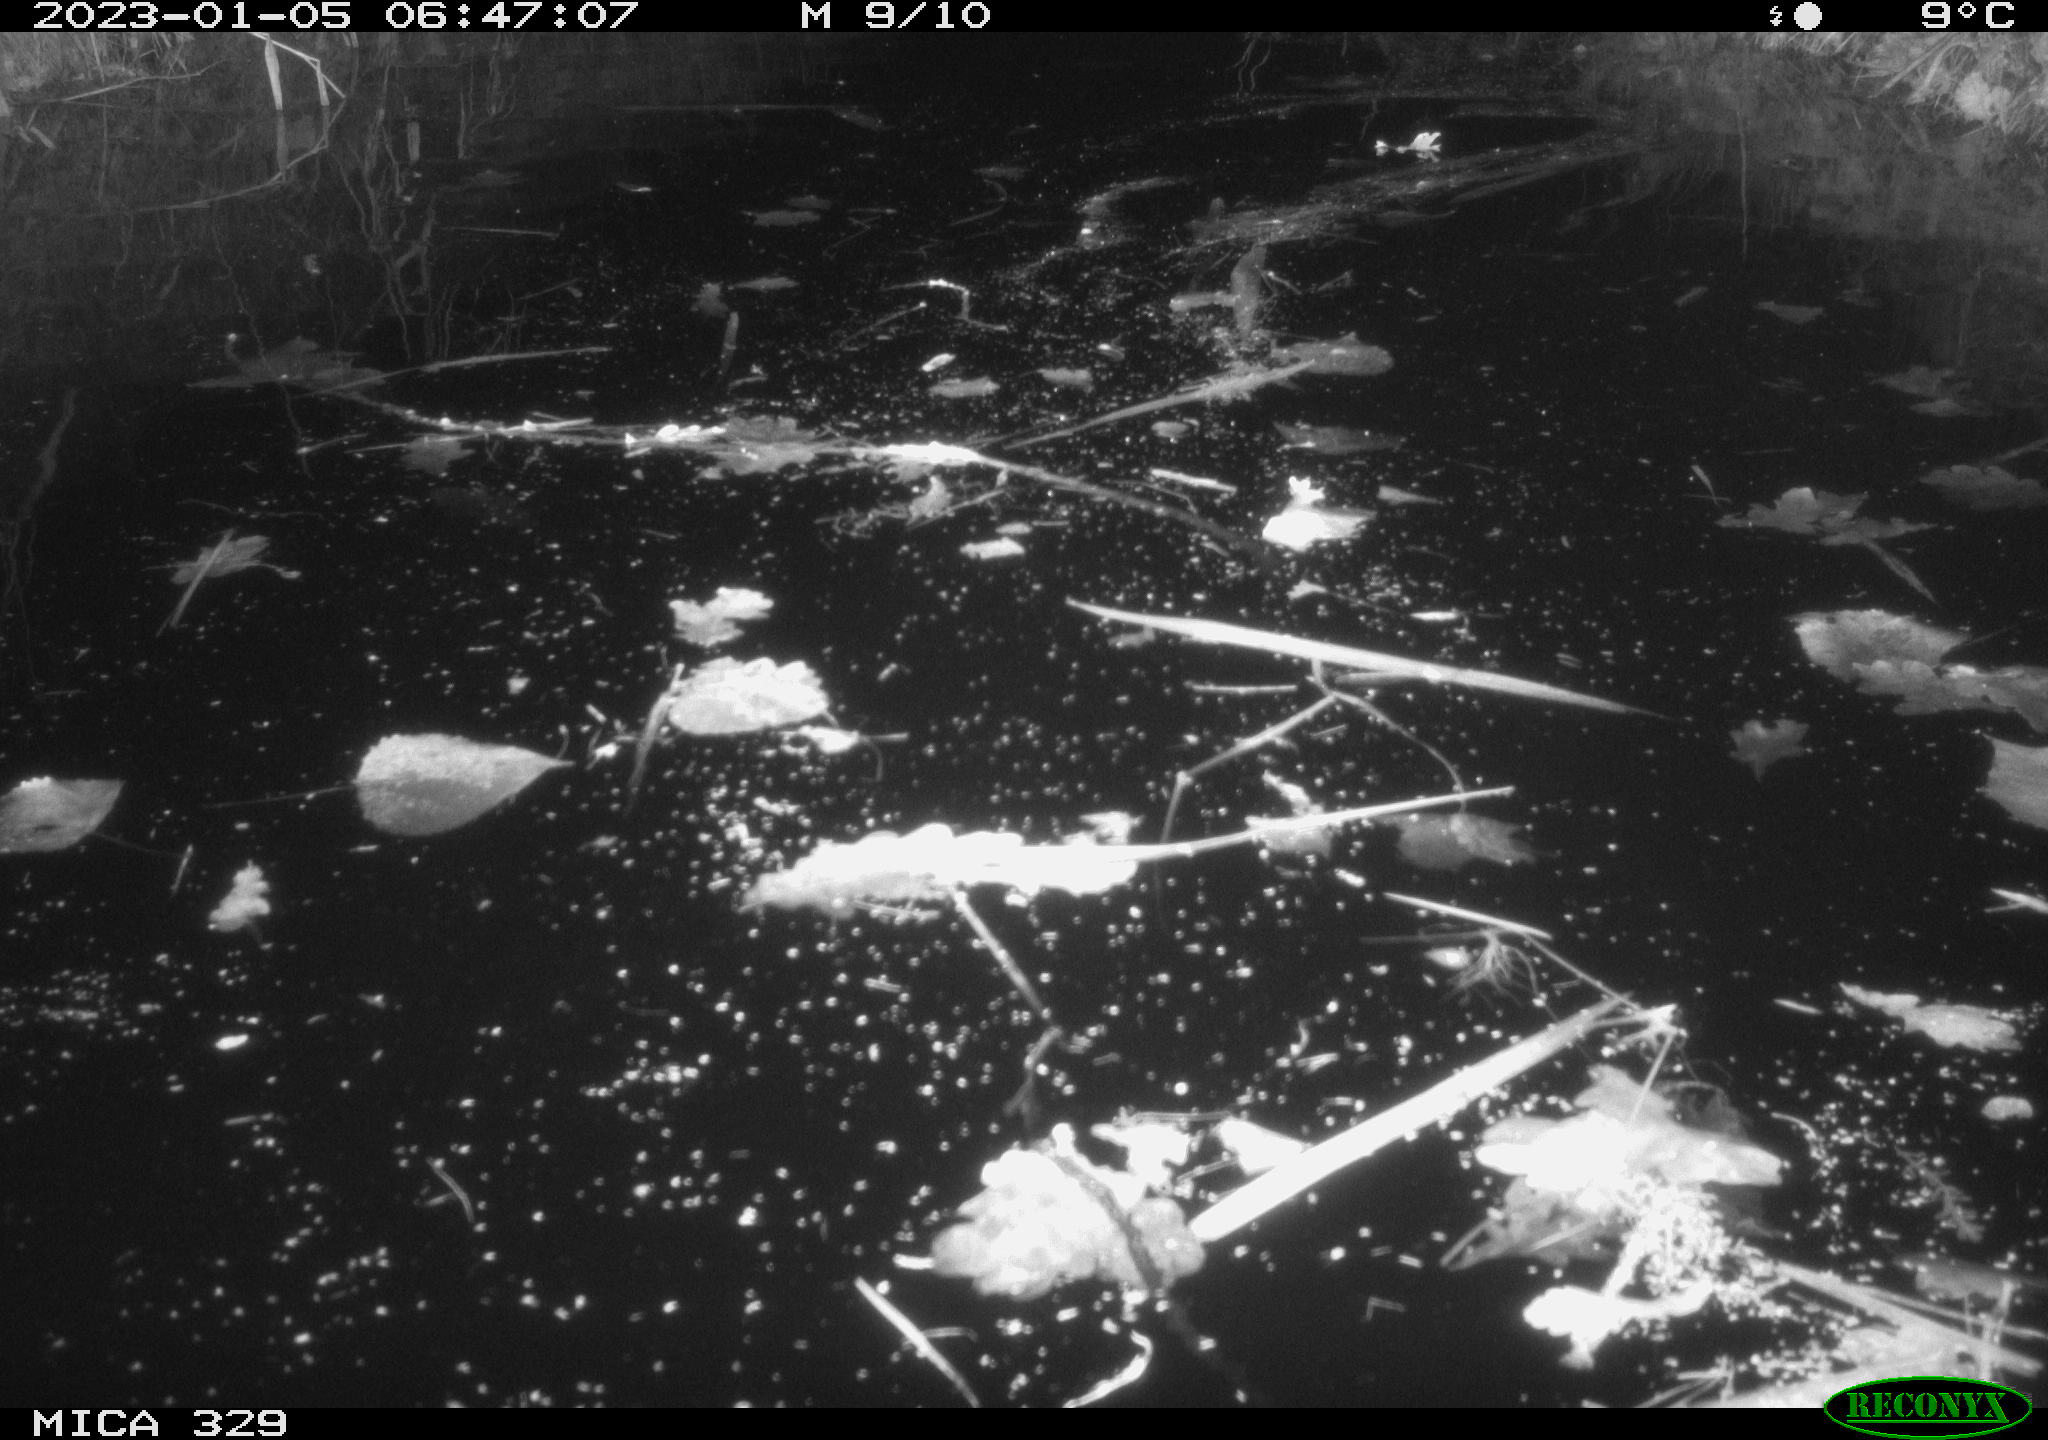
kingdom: Animalia
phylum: Chordata
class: Mammalia
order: Rodentia
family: Cricetidae
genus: Ondatra
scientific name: Ondatra zibethicus
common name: Muskrat
